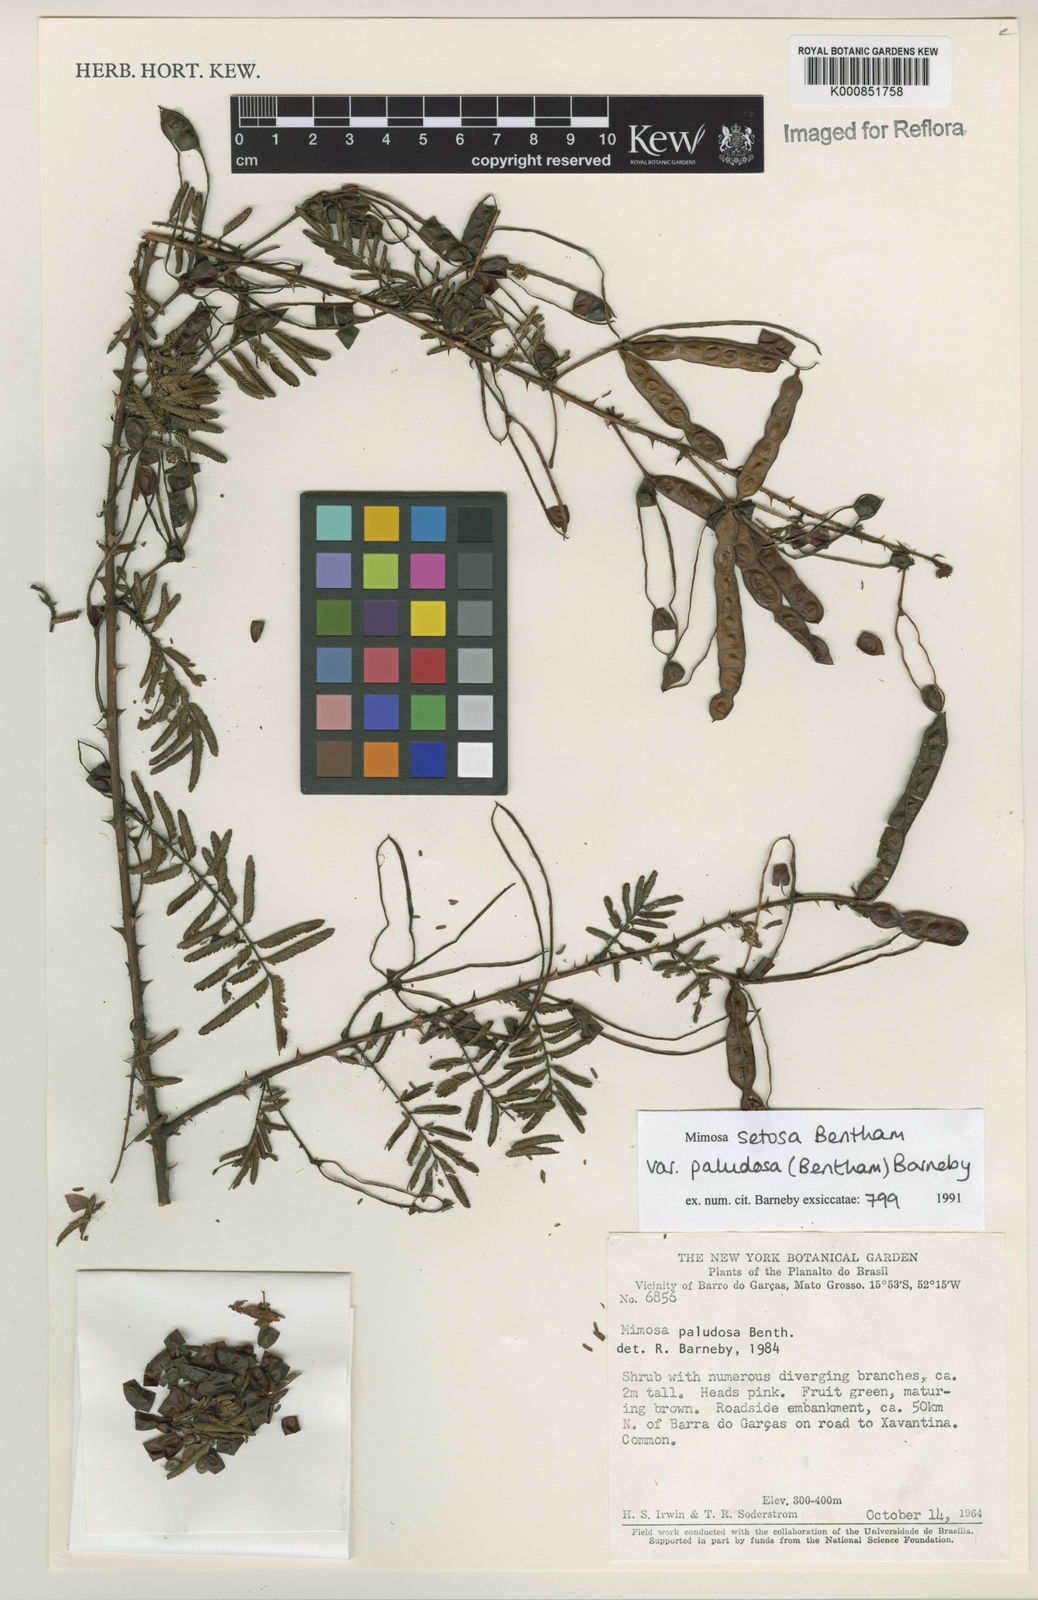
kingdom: Plantae
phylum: Tracheophyta
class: Magnoliopsida
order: Fabales
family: Fabaceae
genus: Mimosa
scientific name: Mimosa paludosa
